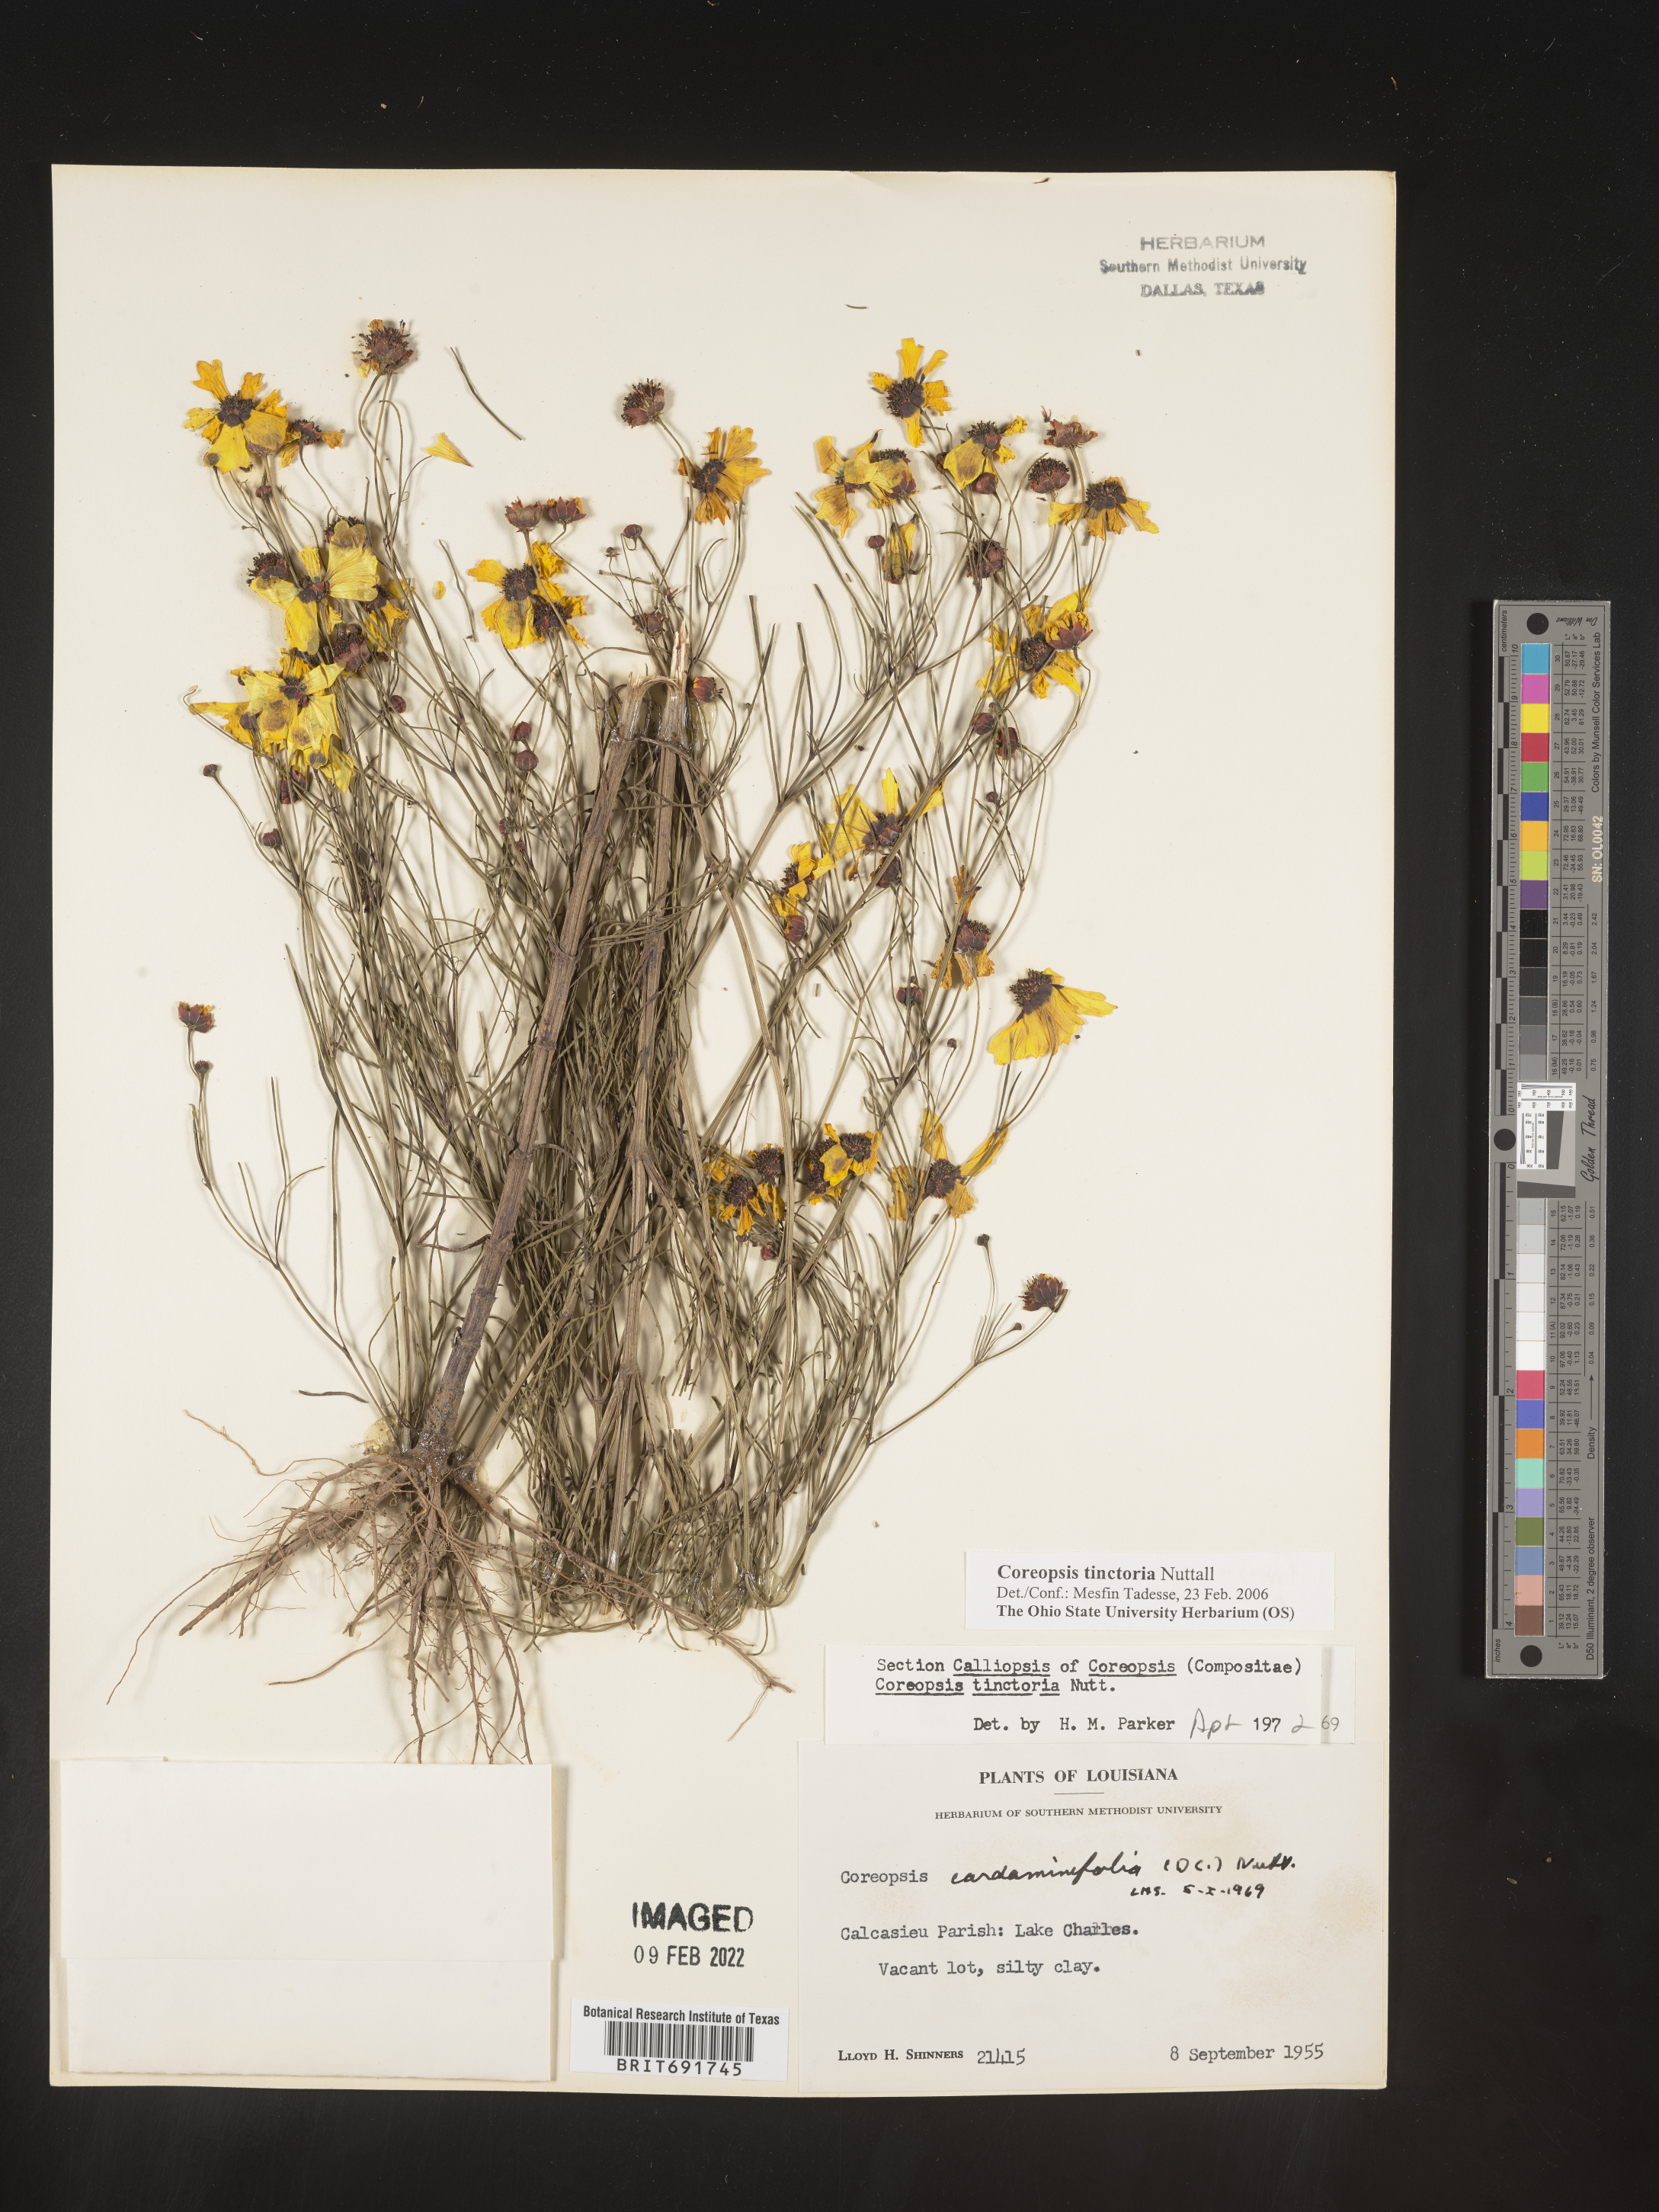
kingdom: Plantae
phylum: Tracheophyta
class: Magnoliopsida
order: Asterales
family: Asteraceae
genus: Coreopsis
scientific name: Coreopsis tinctoria
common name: Garden tickseed
